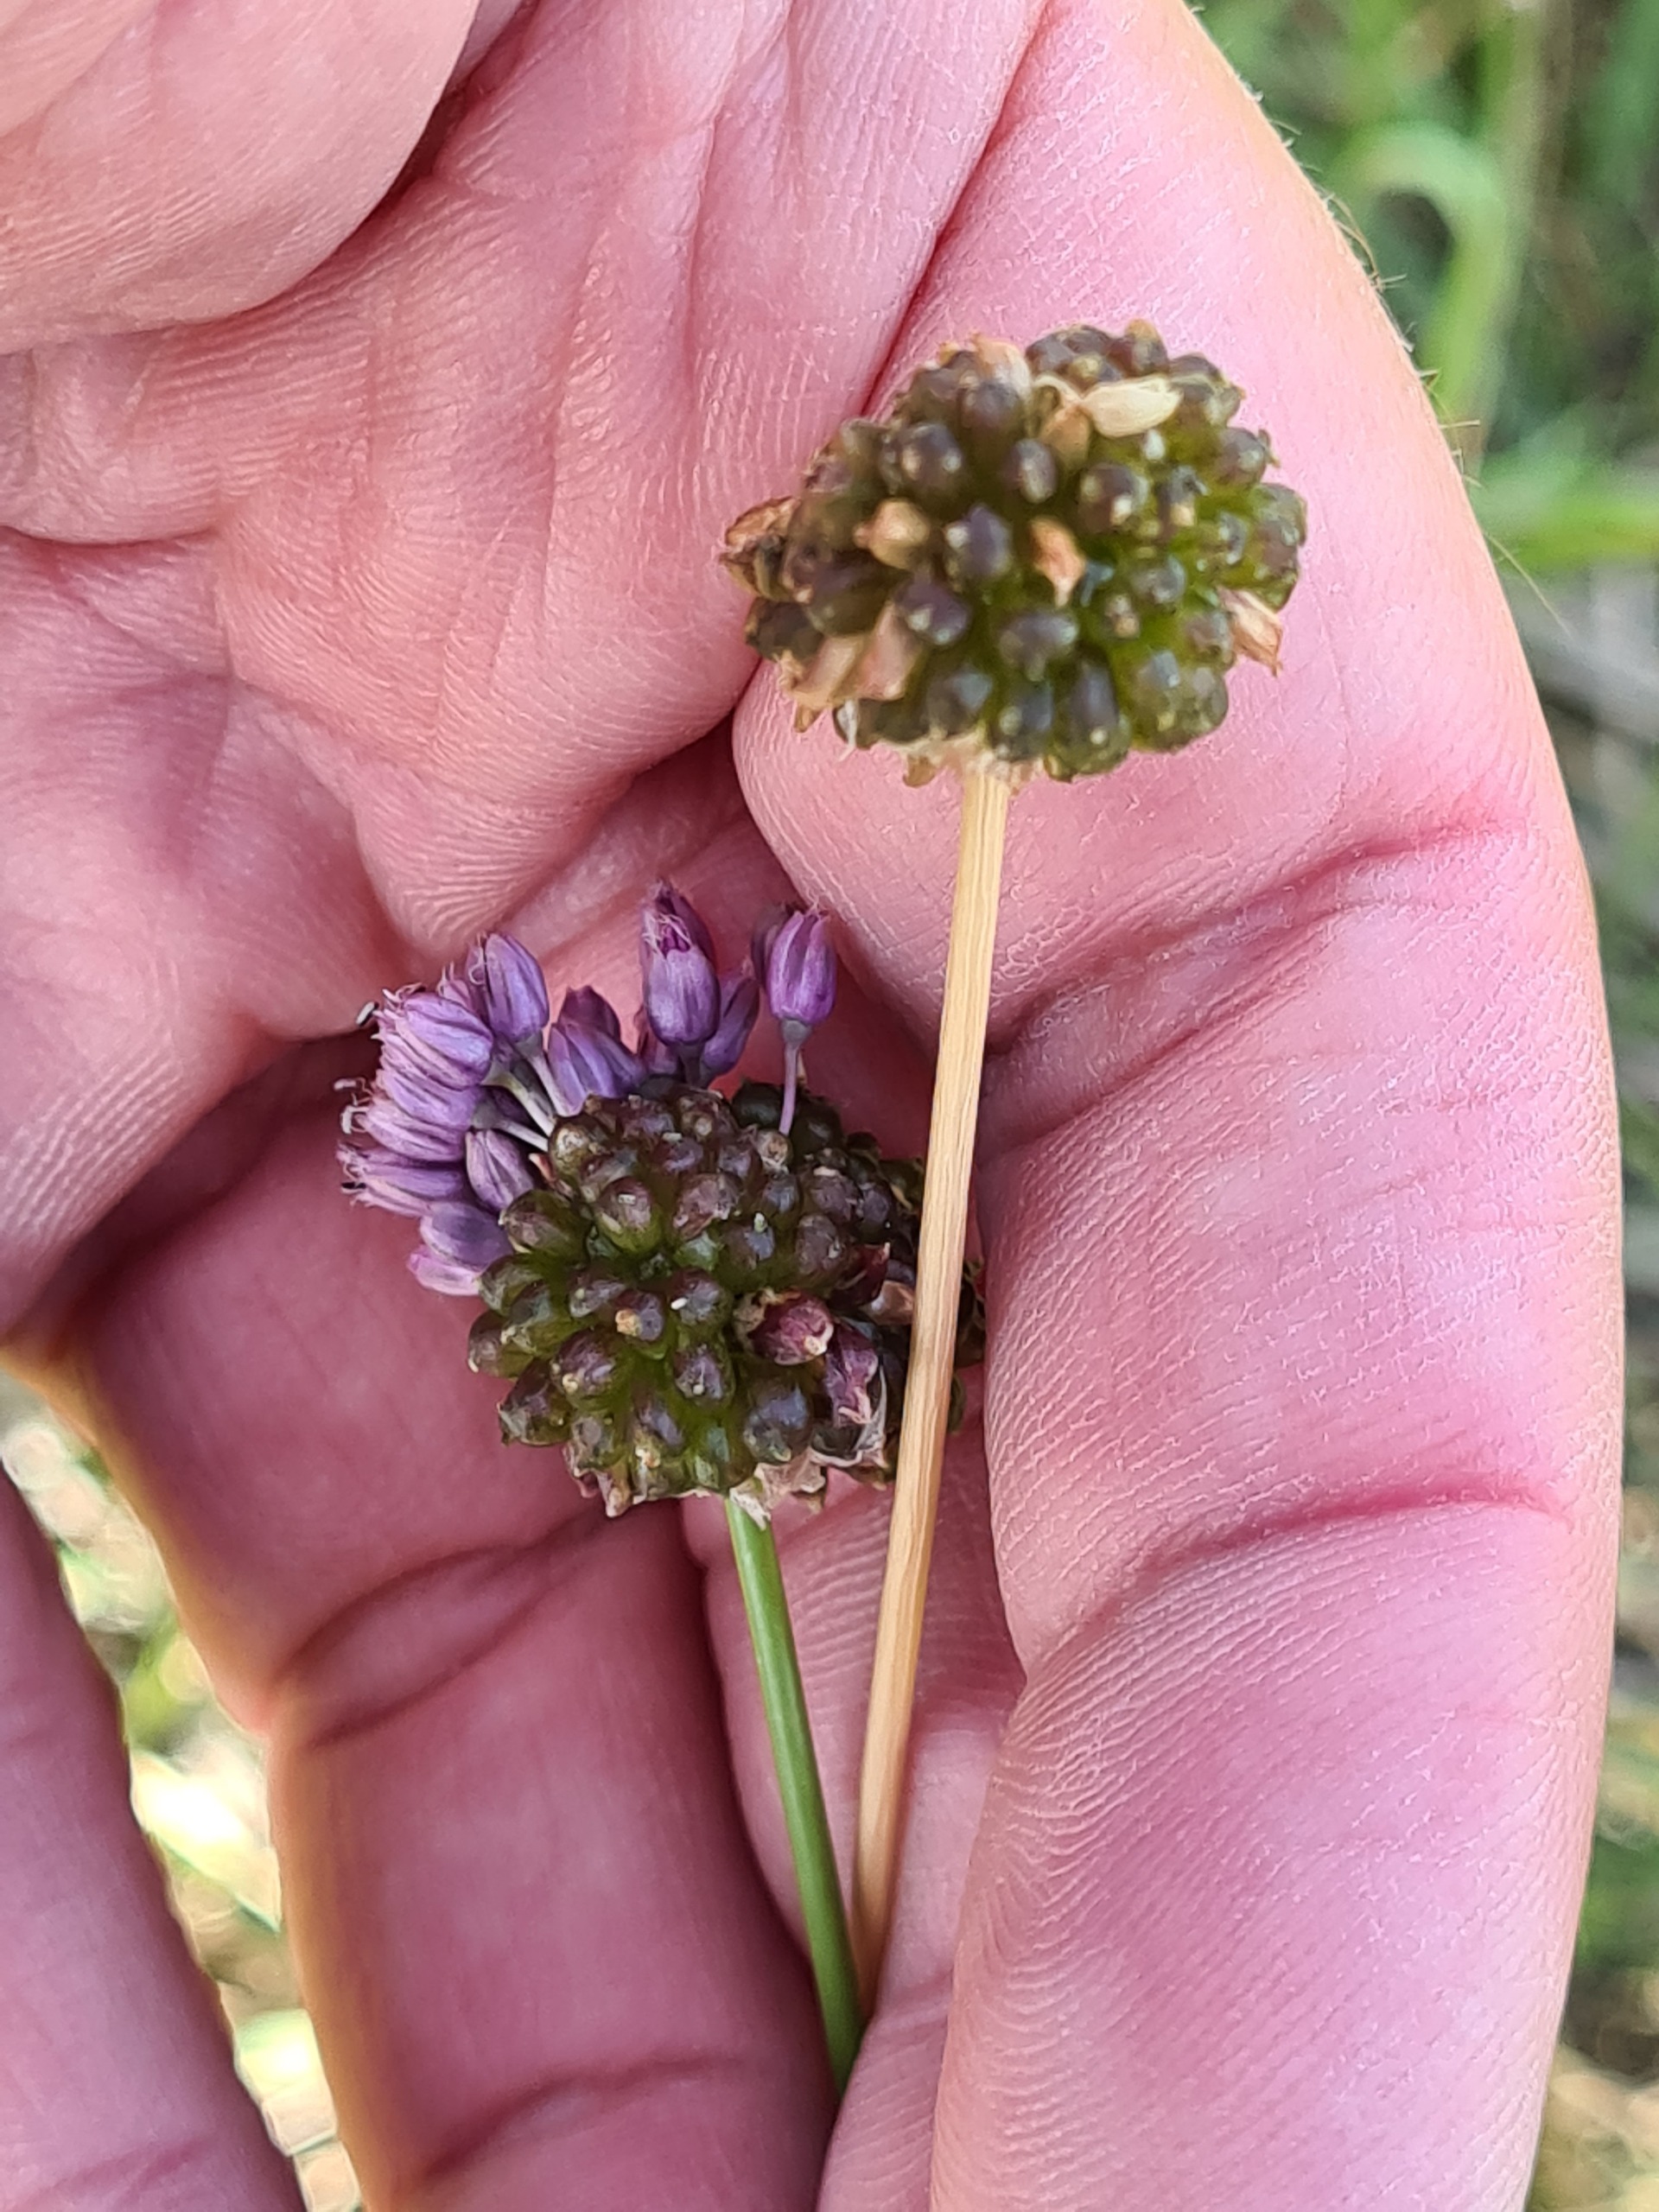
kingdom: Plantae
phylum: Tracheophyta
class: Liliopsida
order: Asparagales
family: Amaryllidaceae
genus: Allium
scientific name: Allium vineale
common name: Sand-løg
